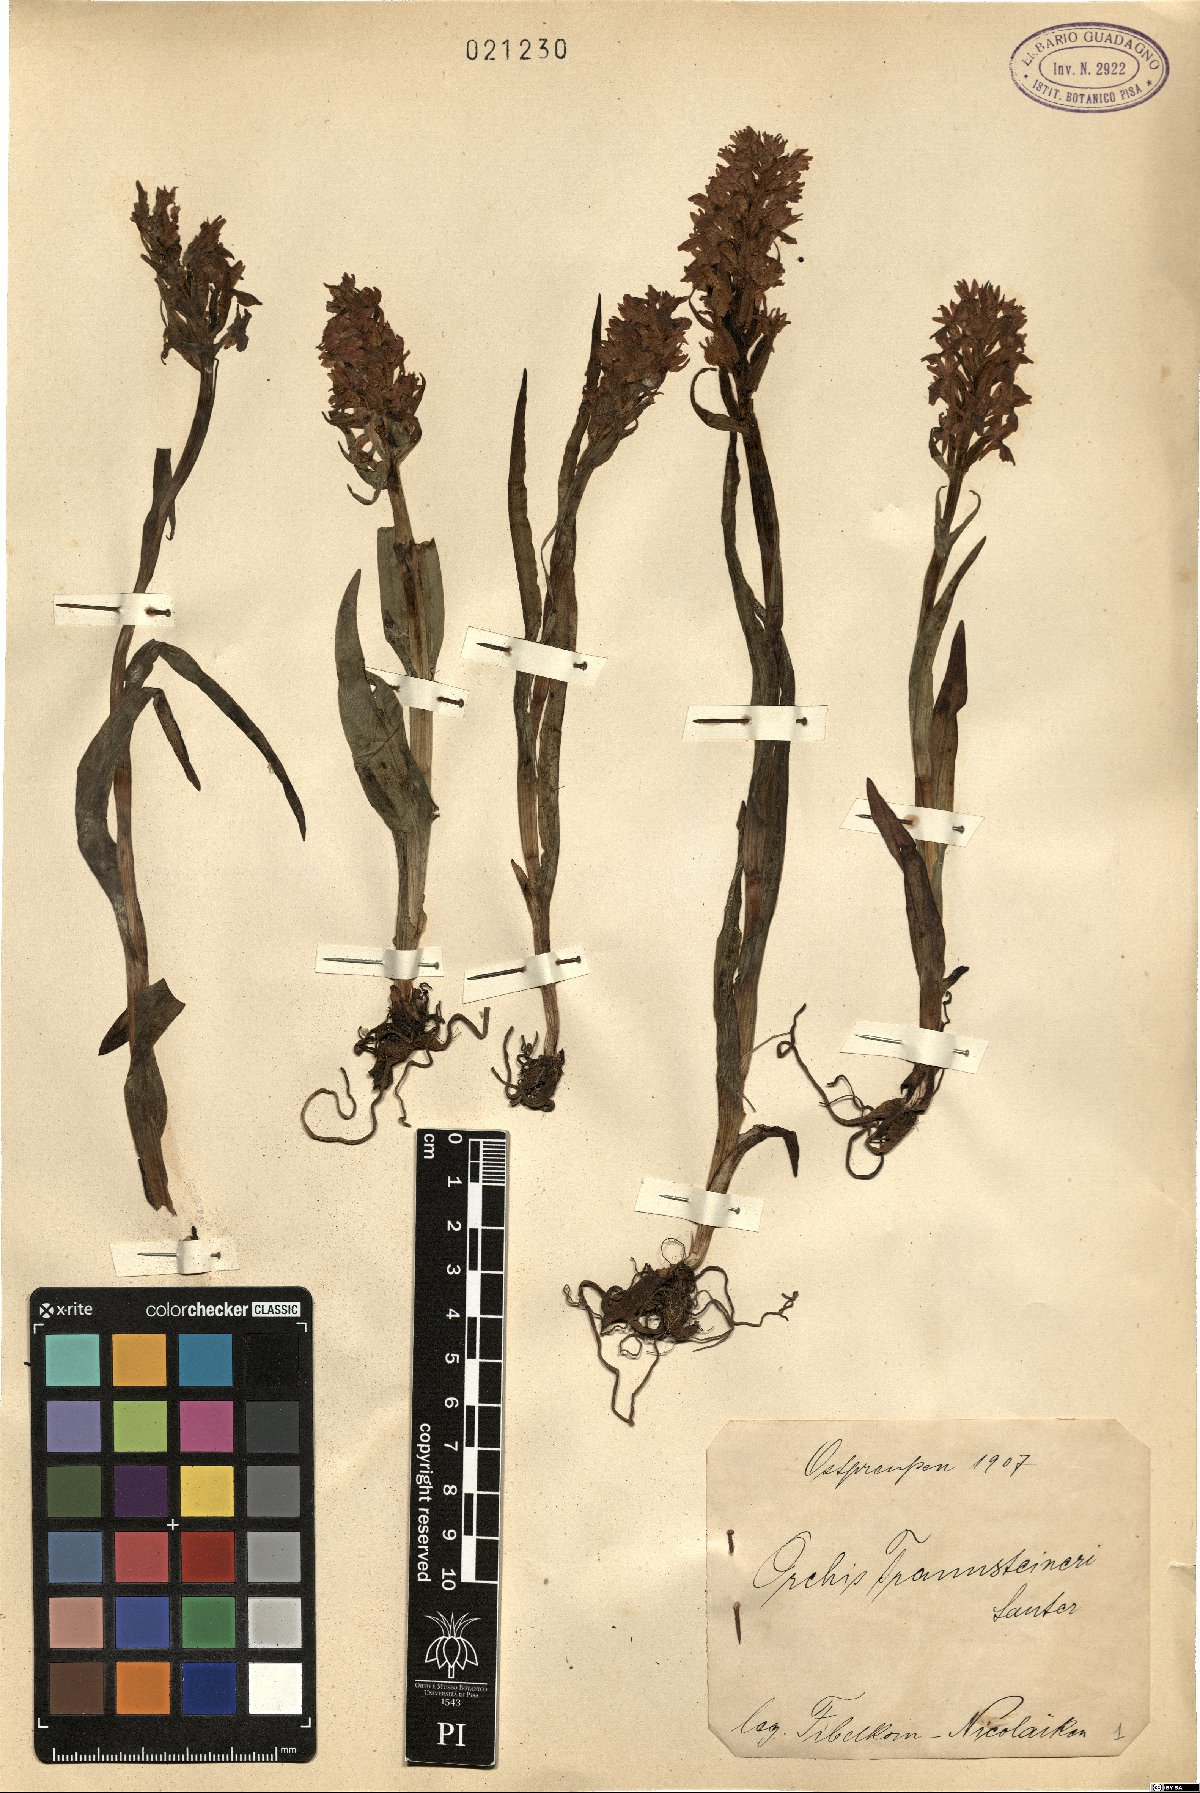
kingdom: Plantae
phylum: Tracheophyta
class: Liliopsida
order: Asparagales
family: Orchidaceae
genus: Dactylorhiza
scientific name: Dactylorhiza majalis
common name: Marsh orchid
